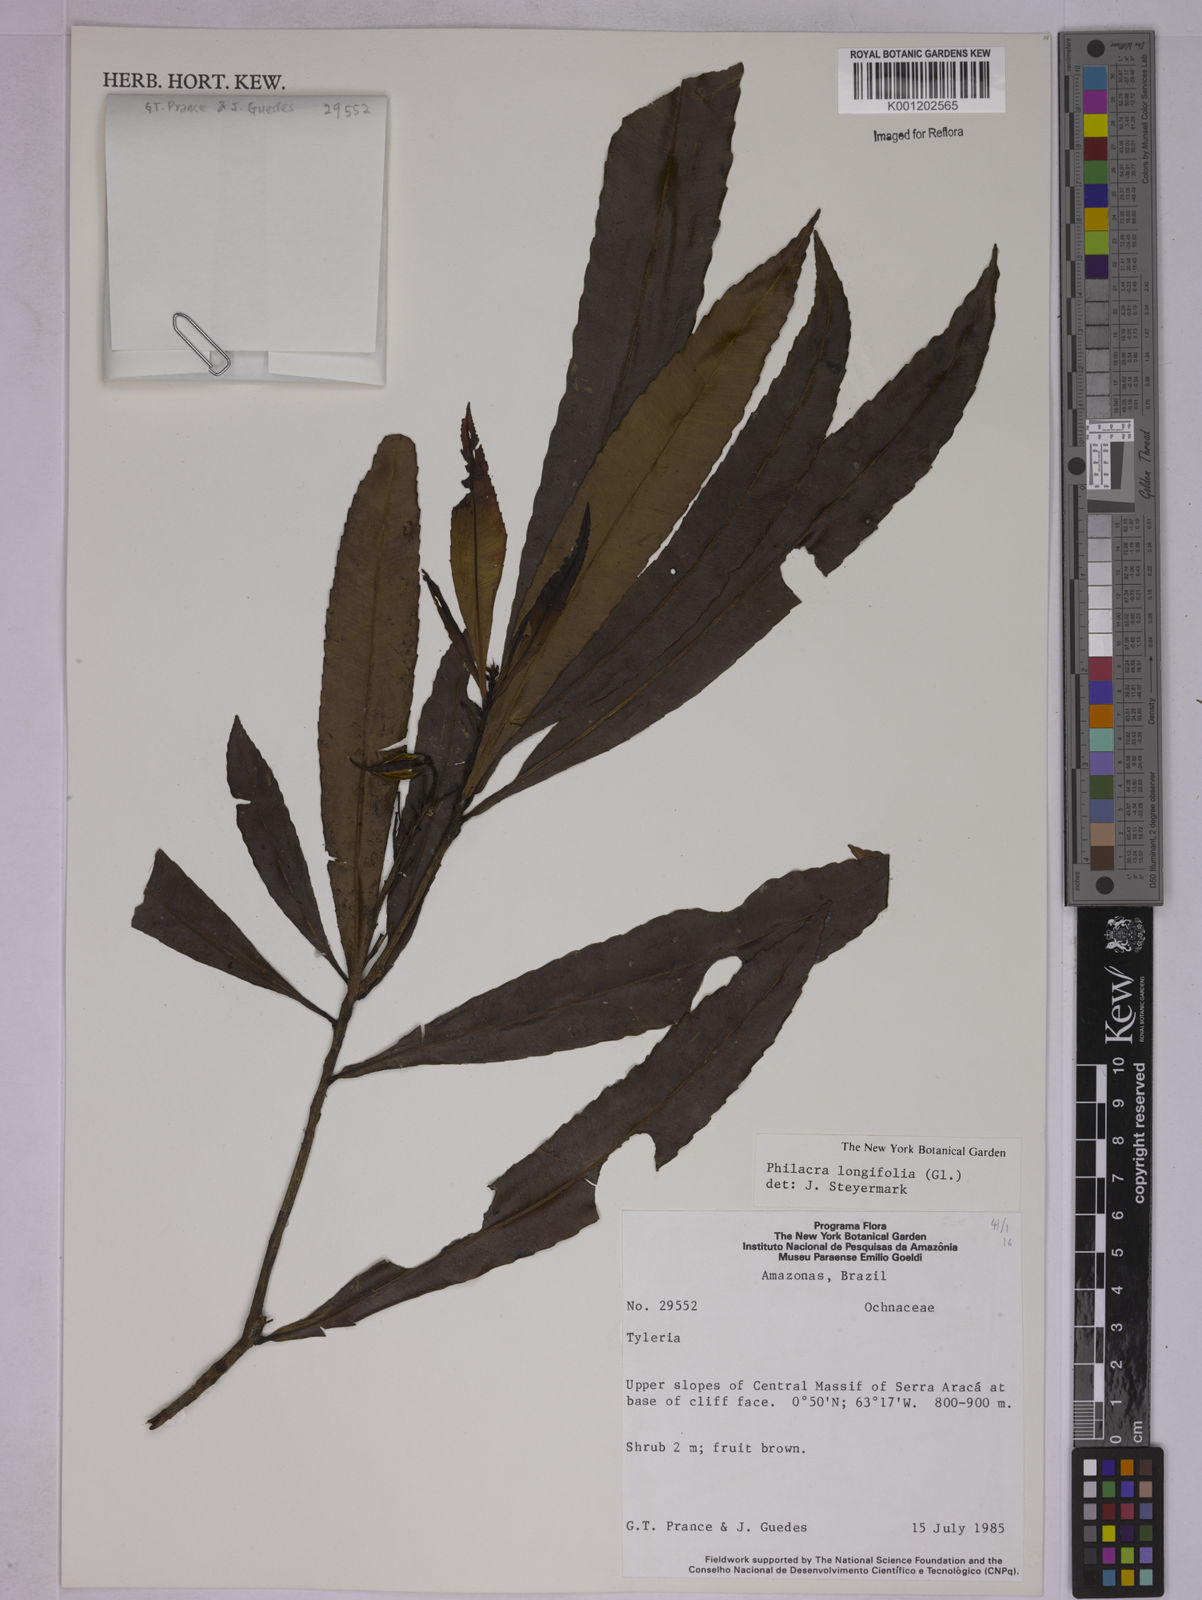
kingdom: Plantae
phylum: Tracheophyta
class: Magnoliopsida
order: Malpighiales
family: Ochnaceae
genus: Philacra
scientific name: Philacra longifolia
